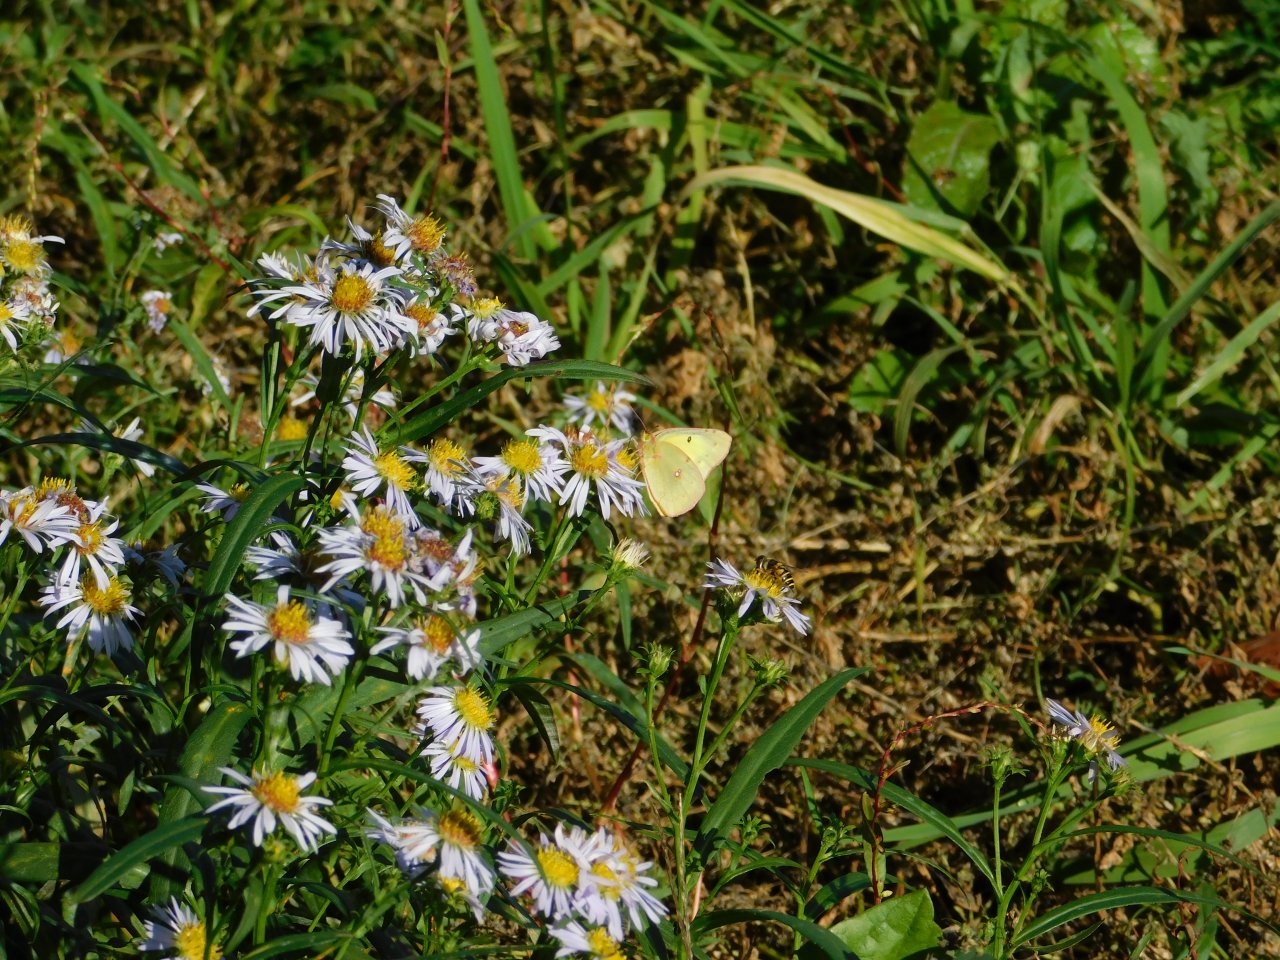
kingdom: Animalia
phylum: Arthropoda
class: Insecta
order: Lepidoptera
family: Pieridae
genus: Colias
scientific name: Colias philodice
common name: Clouded Sulphur
